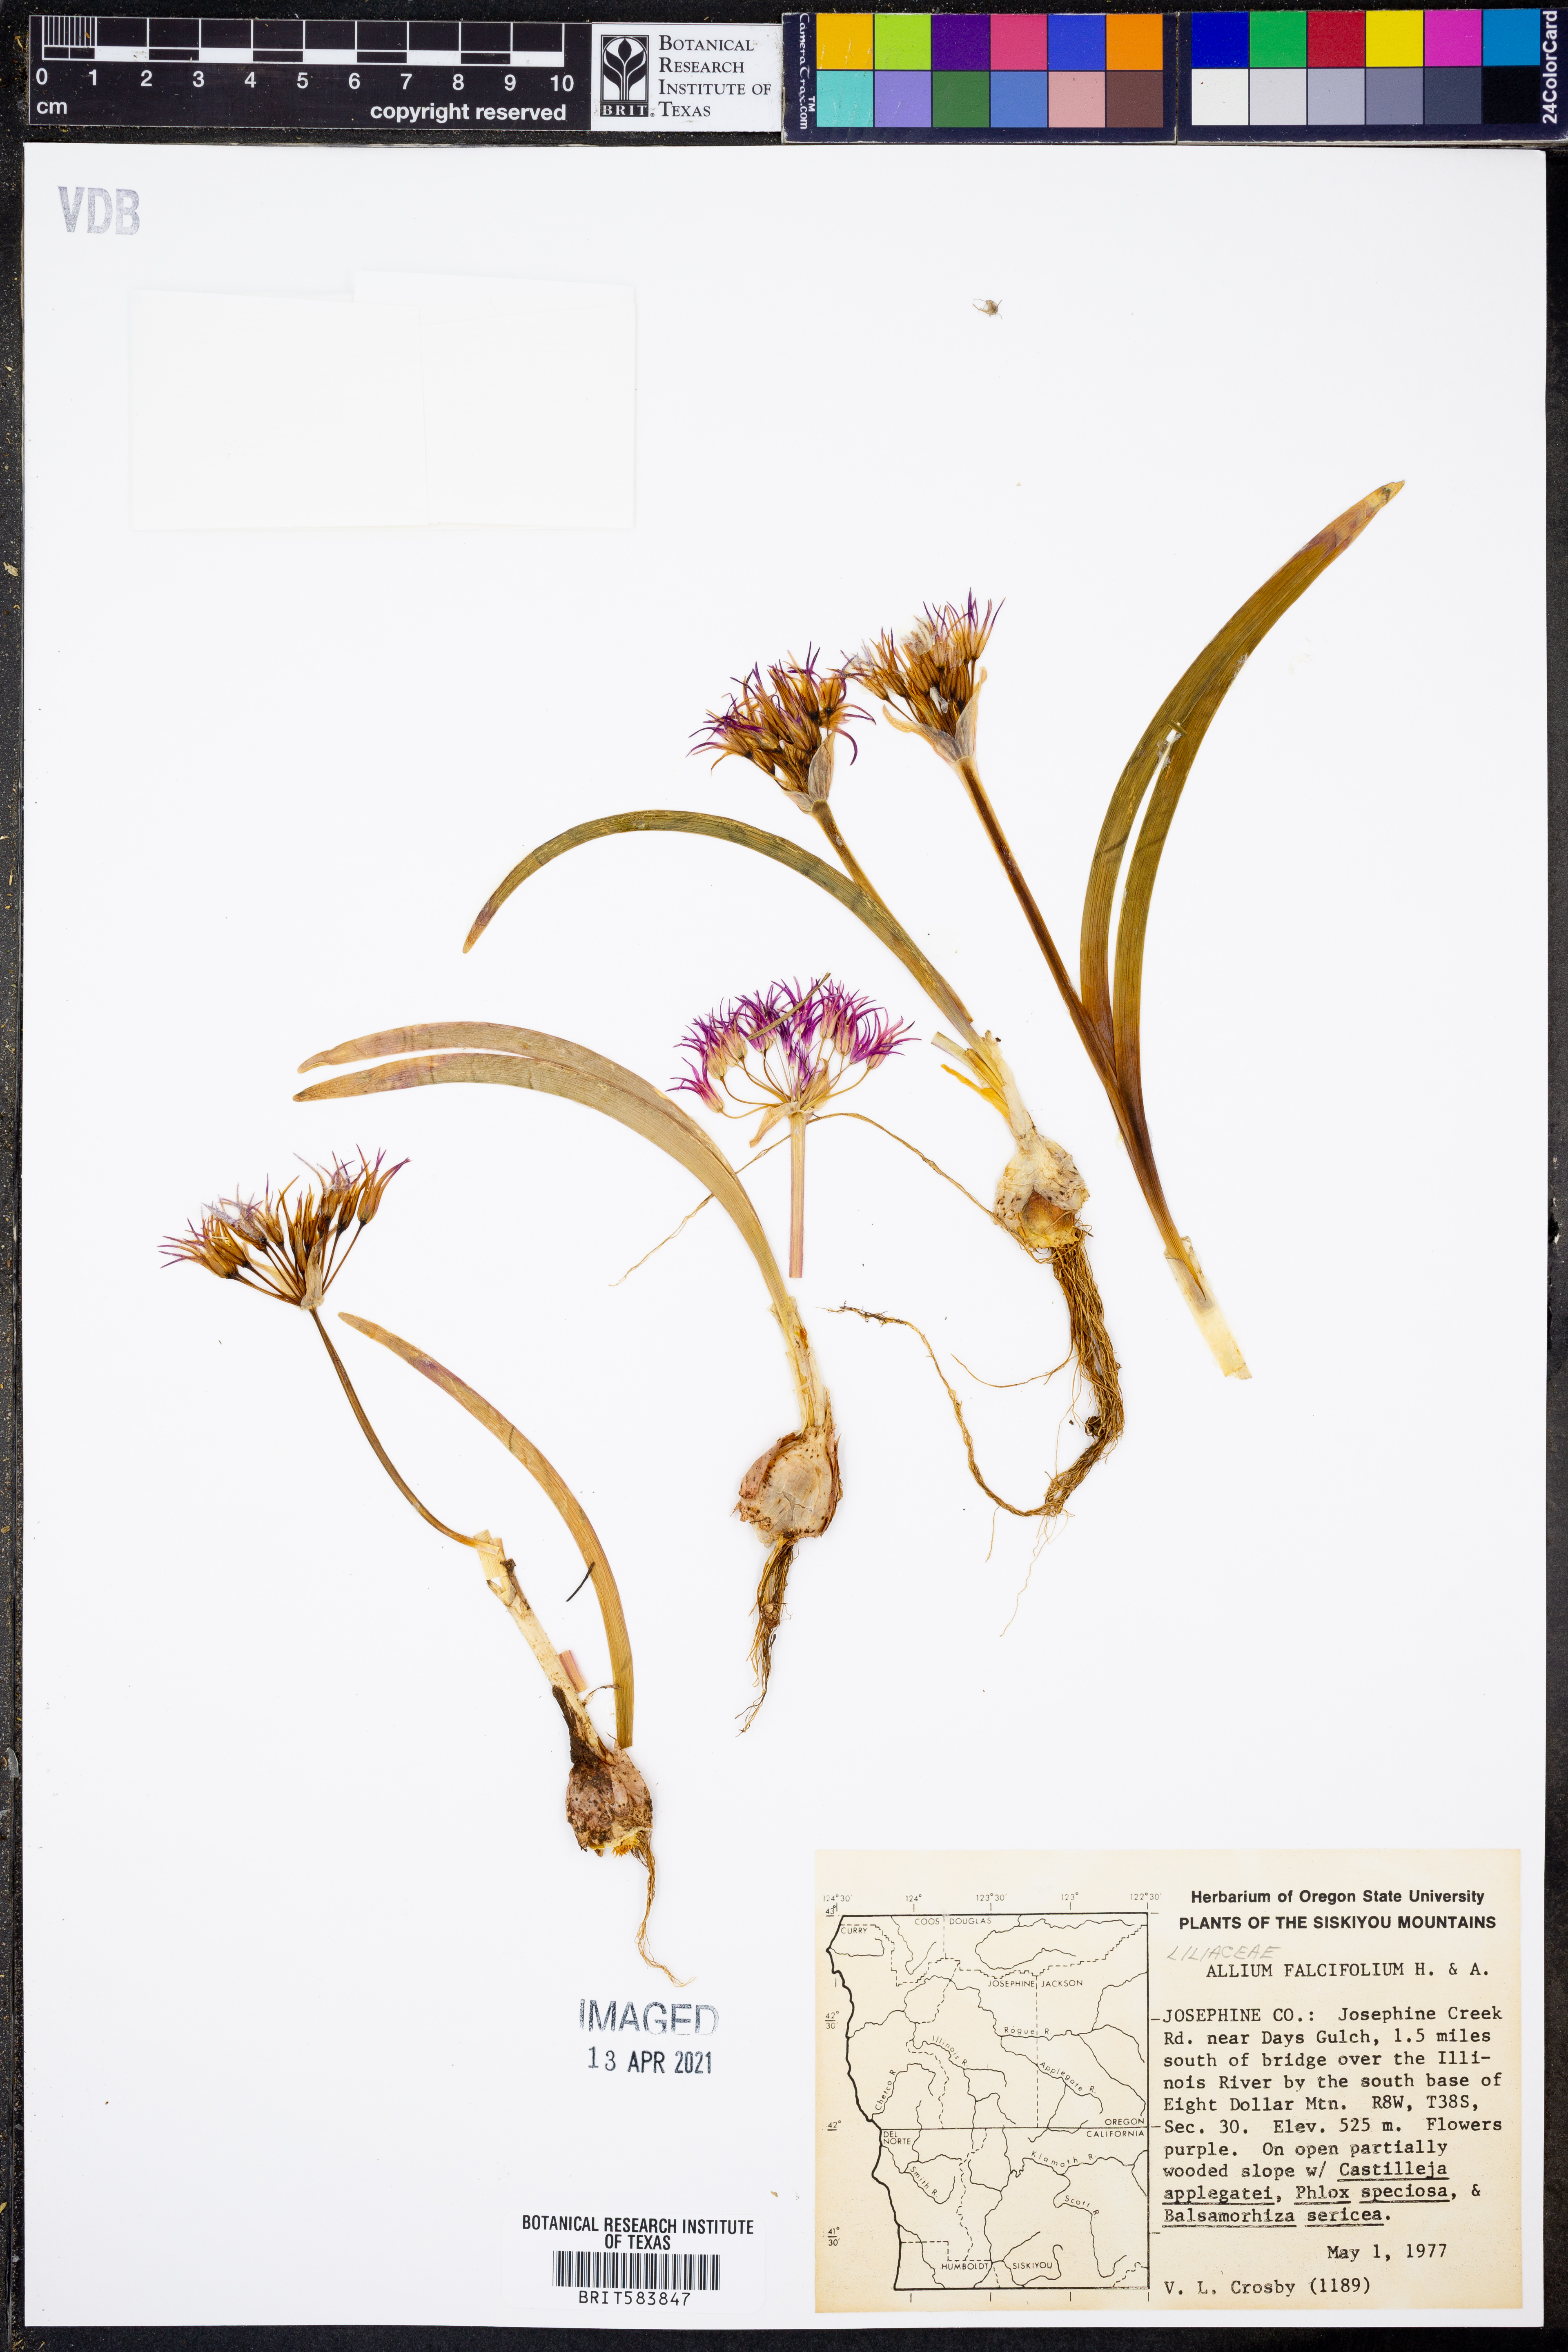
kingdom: Plantae
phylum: Tracheophyta
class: Liliopsida
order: Asparagales
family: Amaryllidaceae
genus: Allium
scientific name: Allium falcifolium
